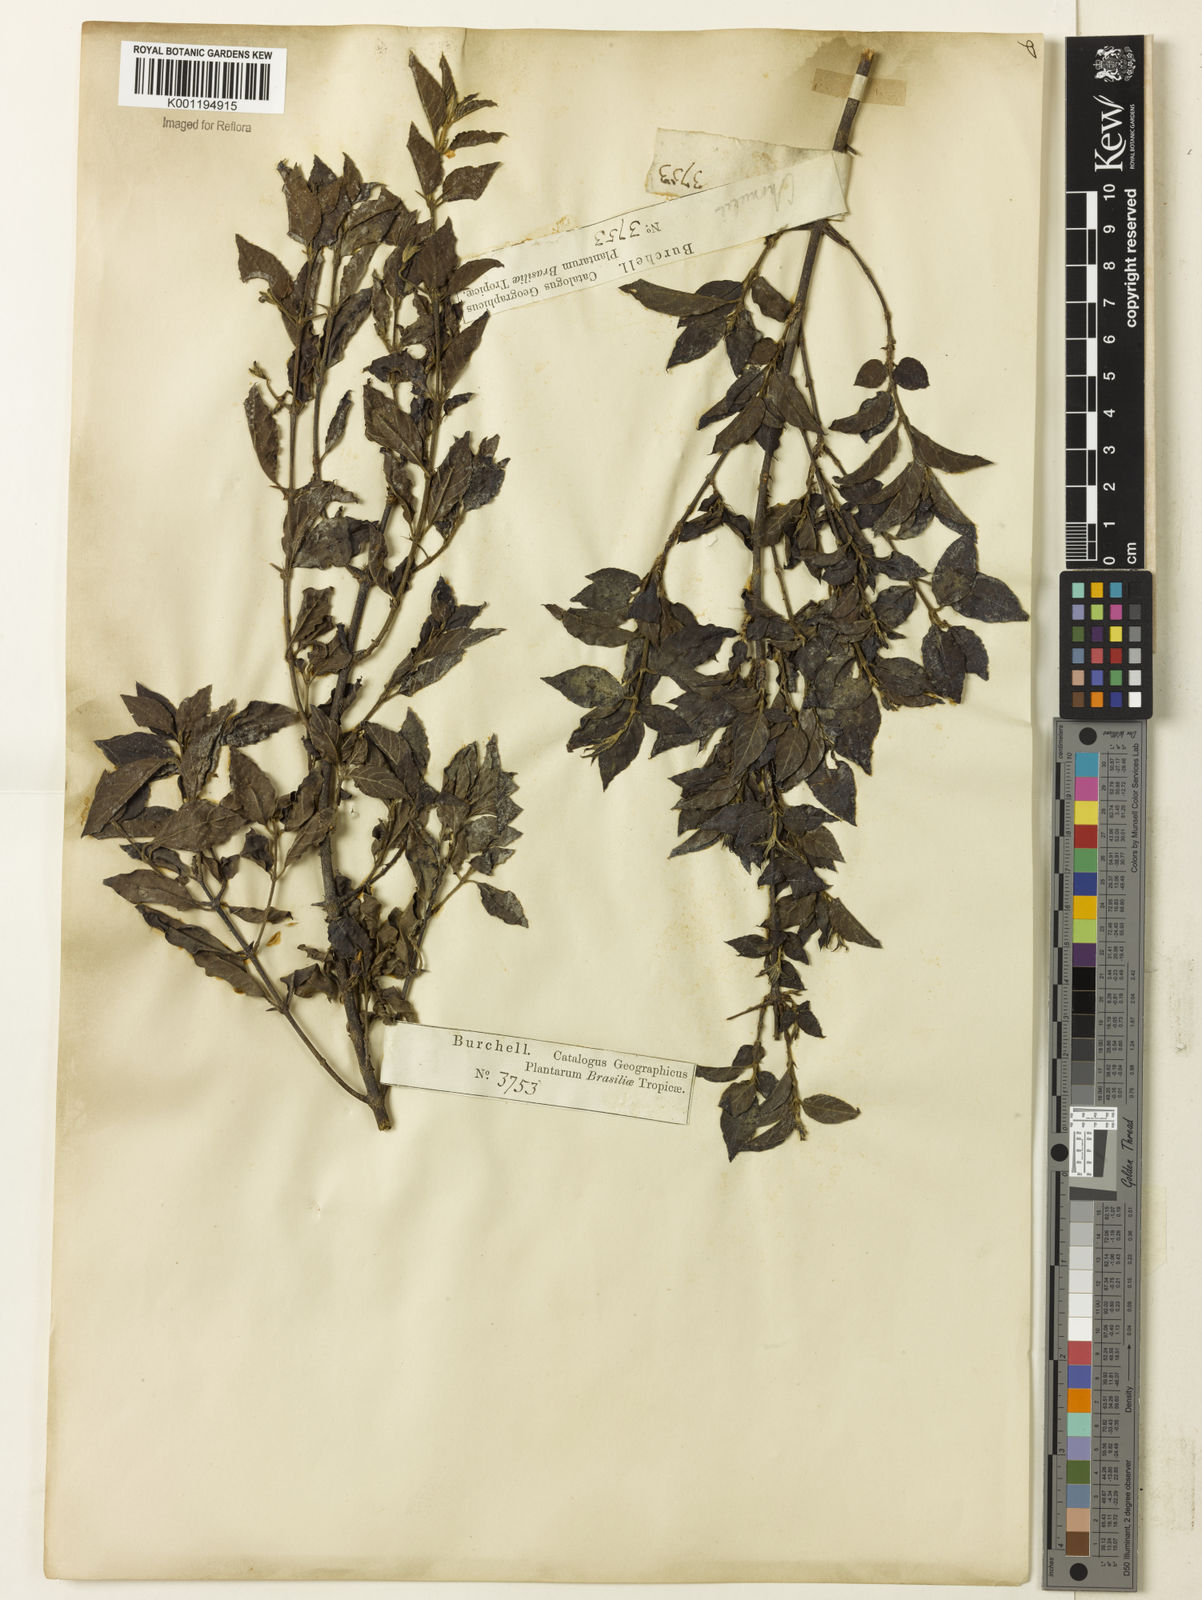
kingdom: Plantae
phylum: Tracheophyta
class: Magnoliopsida
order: Gentianales
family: Rubiaceae
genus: Chomelia
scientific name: Chomelia
